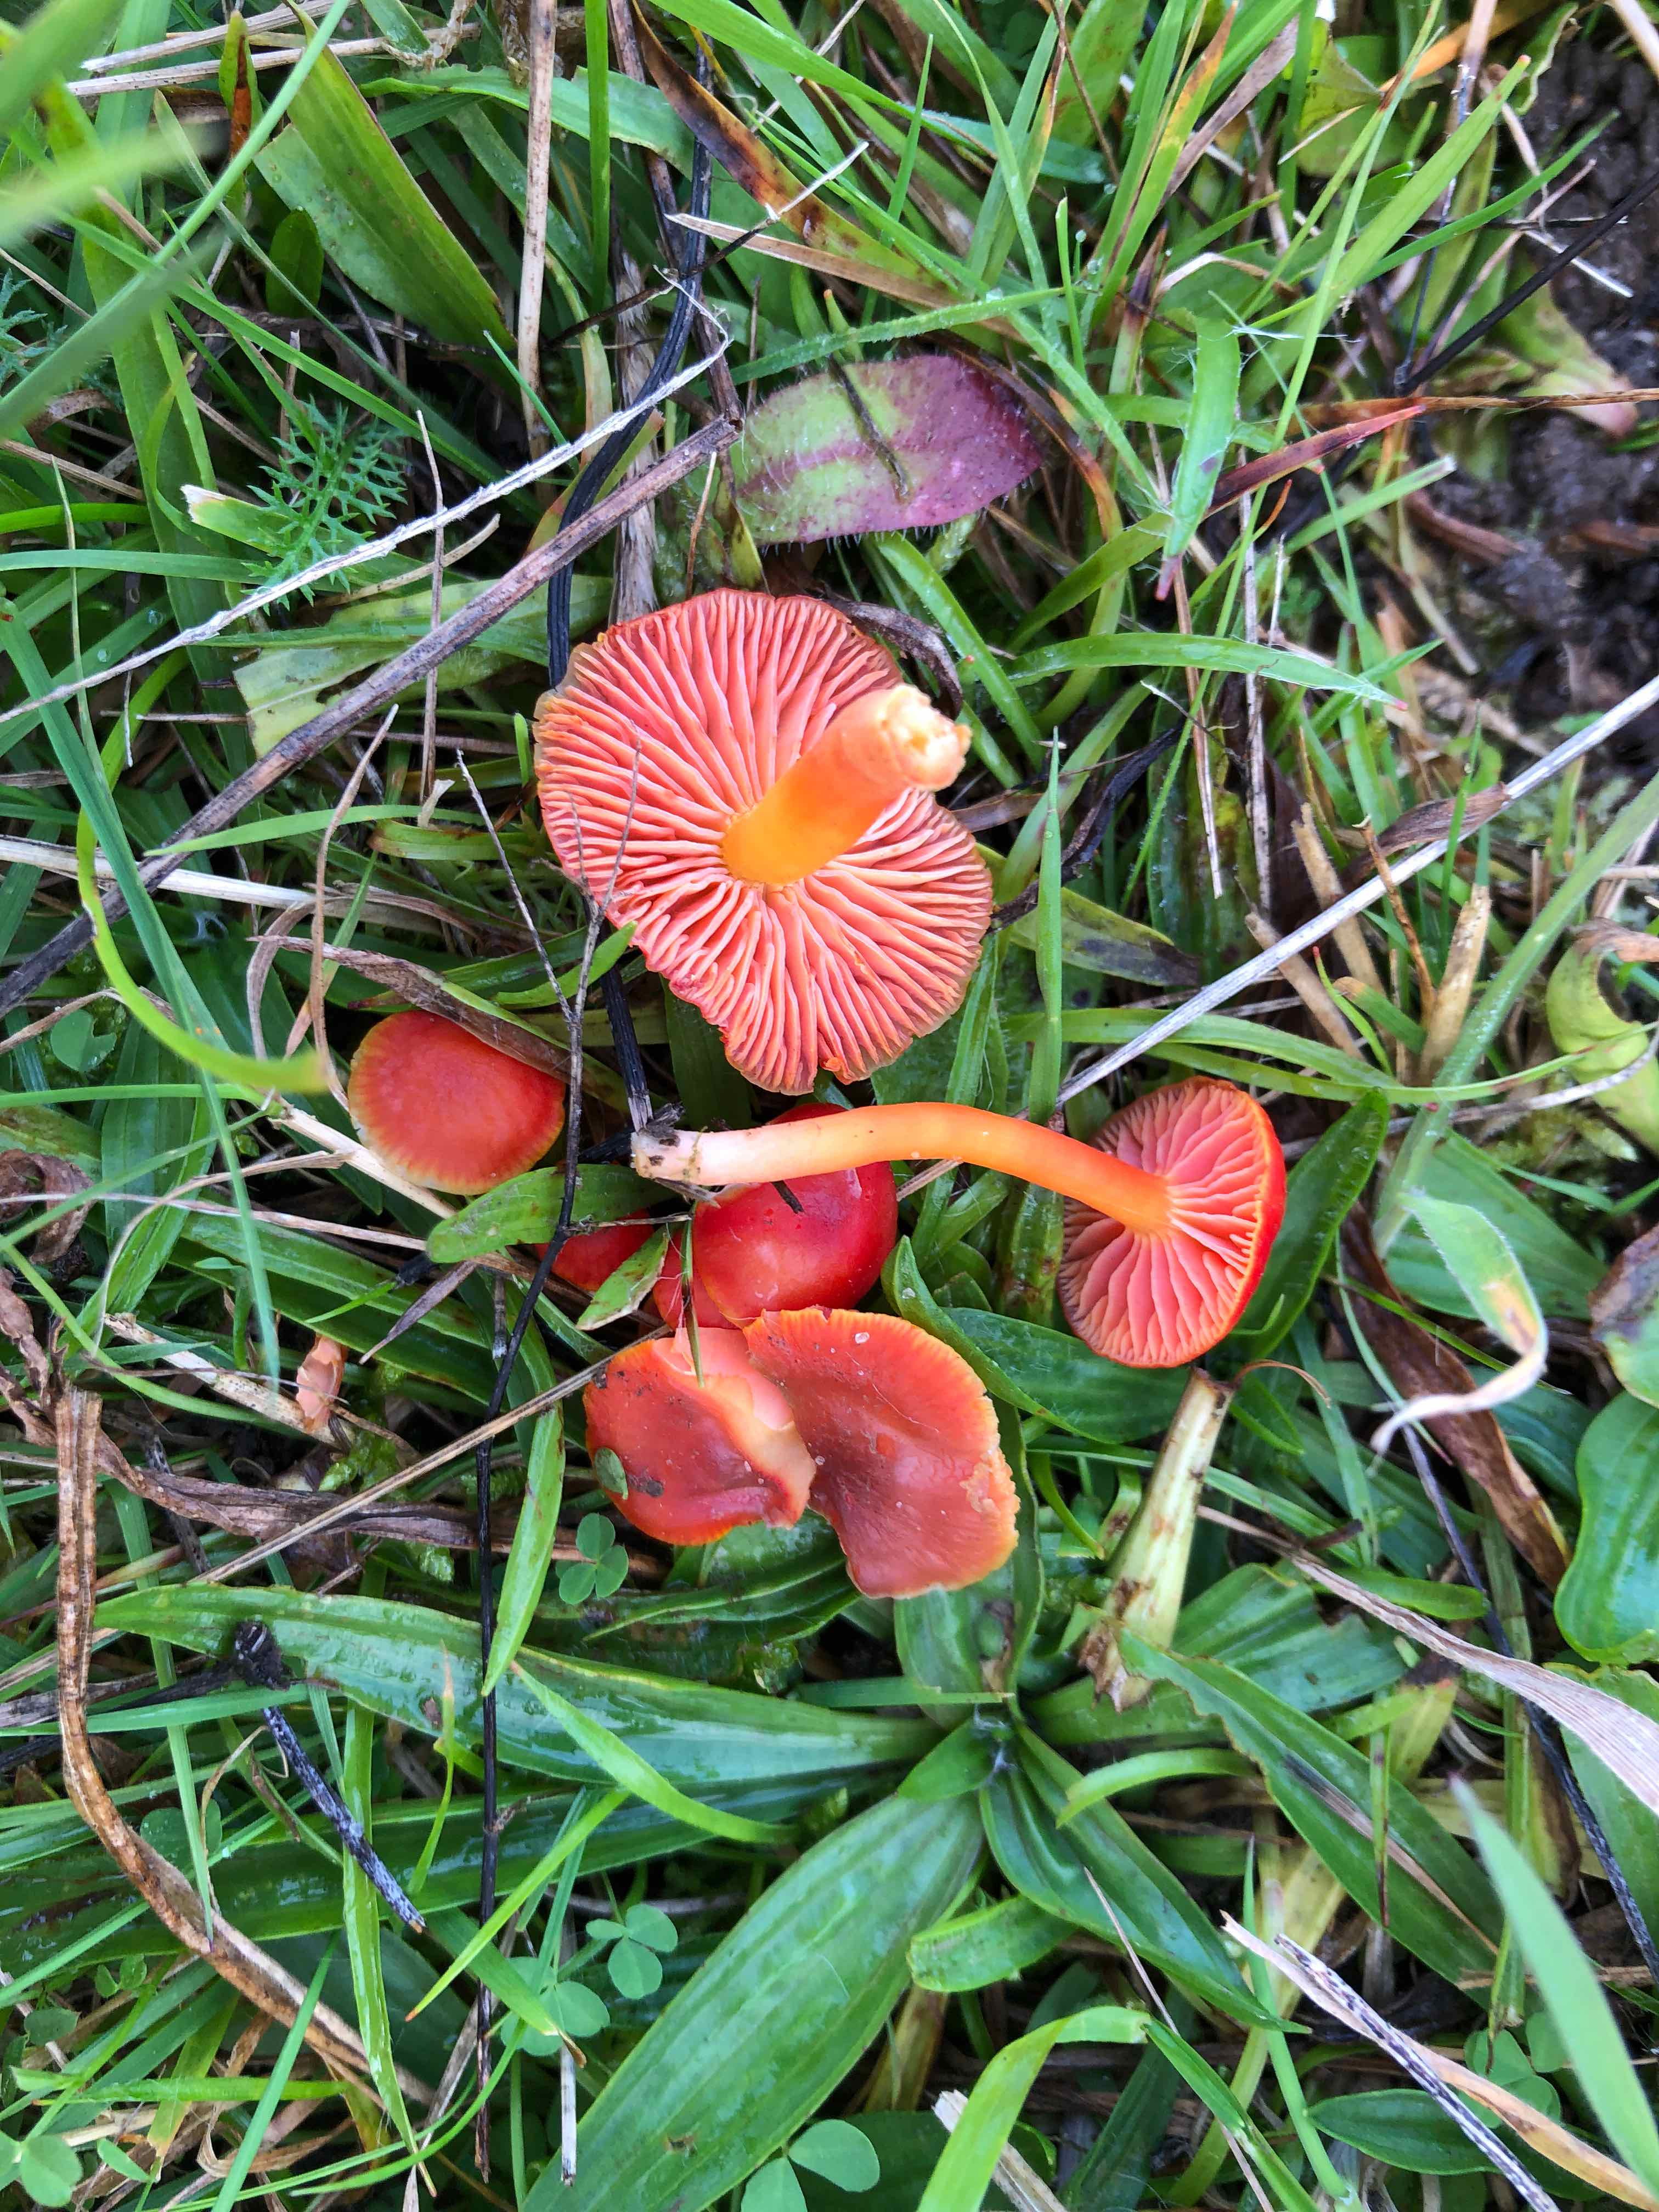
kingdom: Fungi
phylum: Basidiomycota
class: Agaricomycetes
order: Agaricales
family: Hygrophoraceae
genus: Hygrocybe
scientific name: Hygrocybe phaeococcinea
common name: sortdugget vokshat
